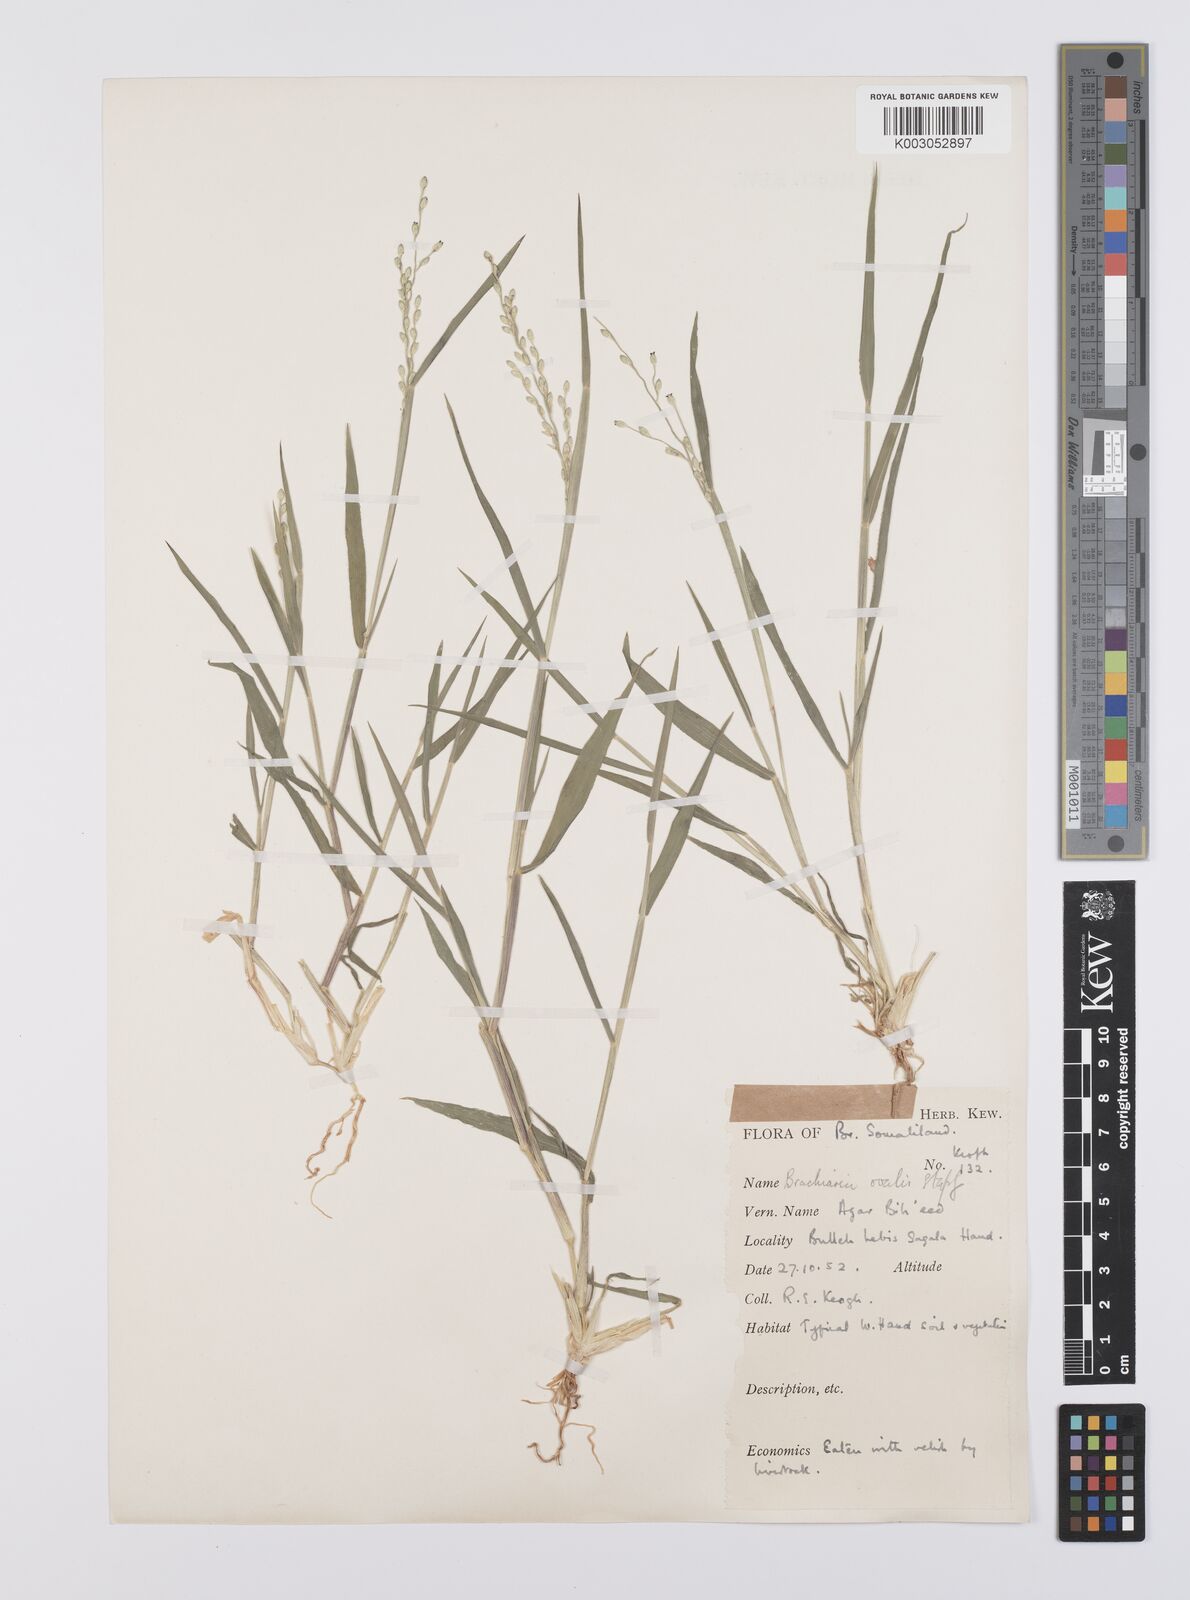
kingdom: Plantae
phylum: Tracheophyta
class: Liliopsida
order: Poales
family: Poaceae
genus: Urochloa
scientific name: Urochloa ovalis
